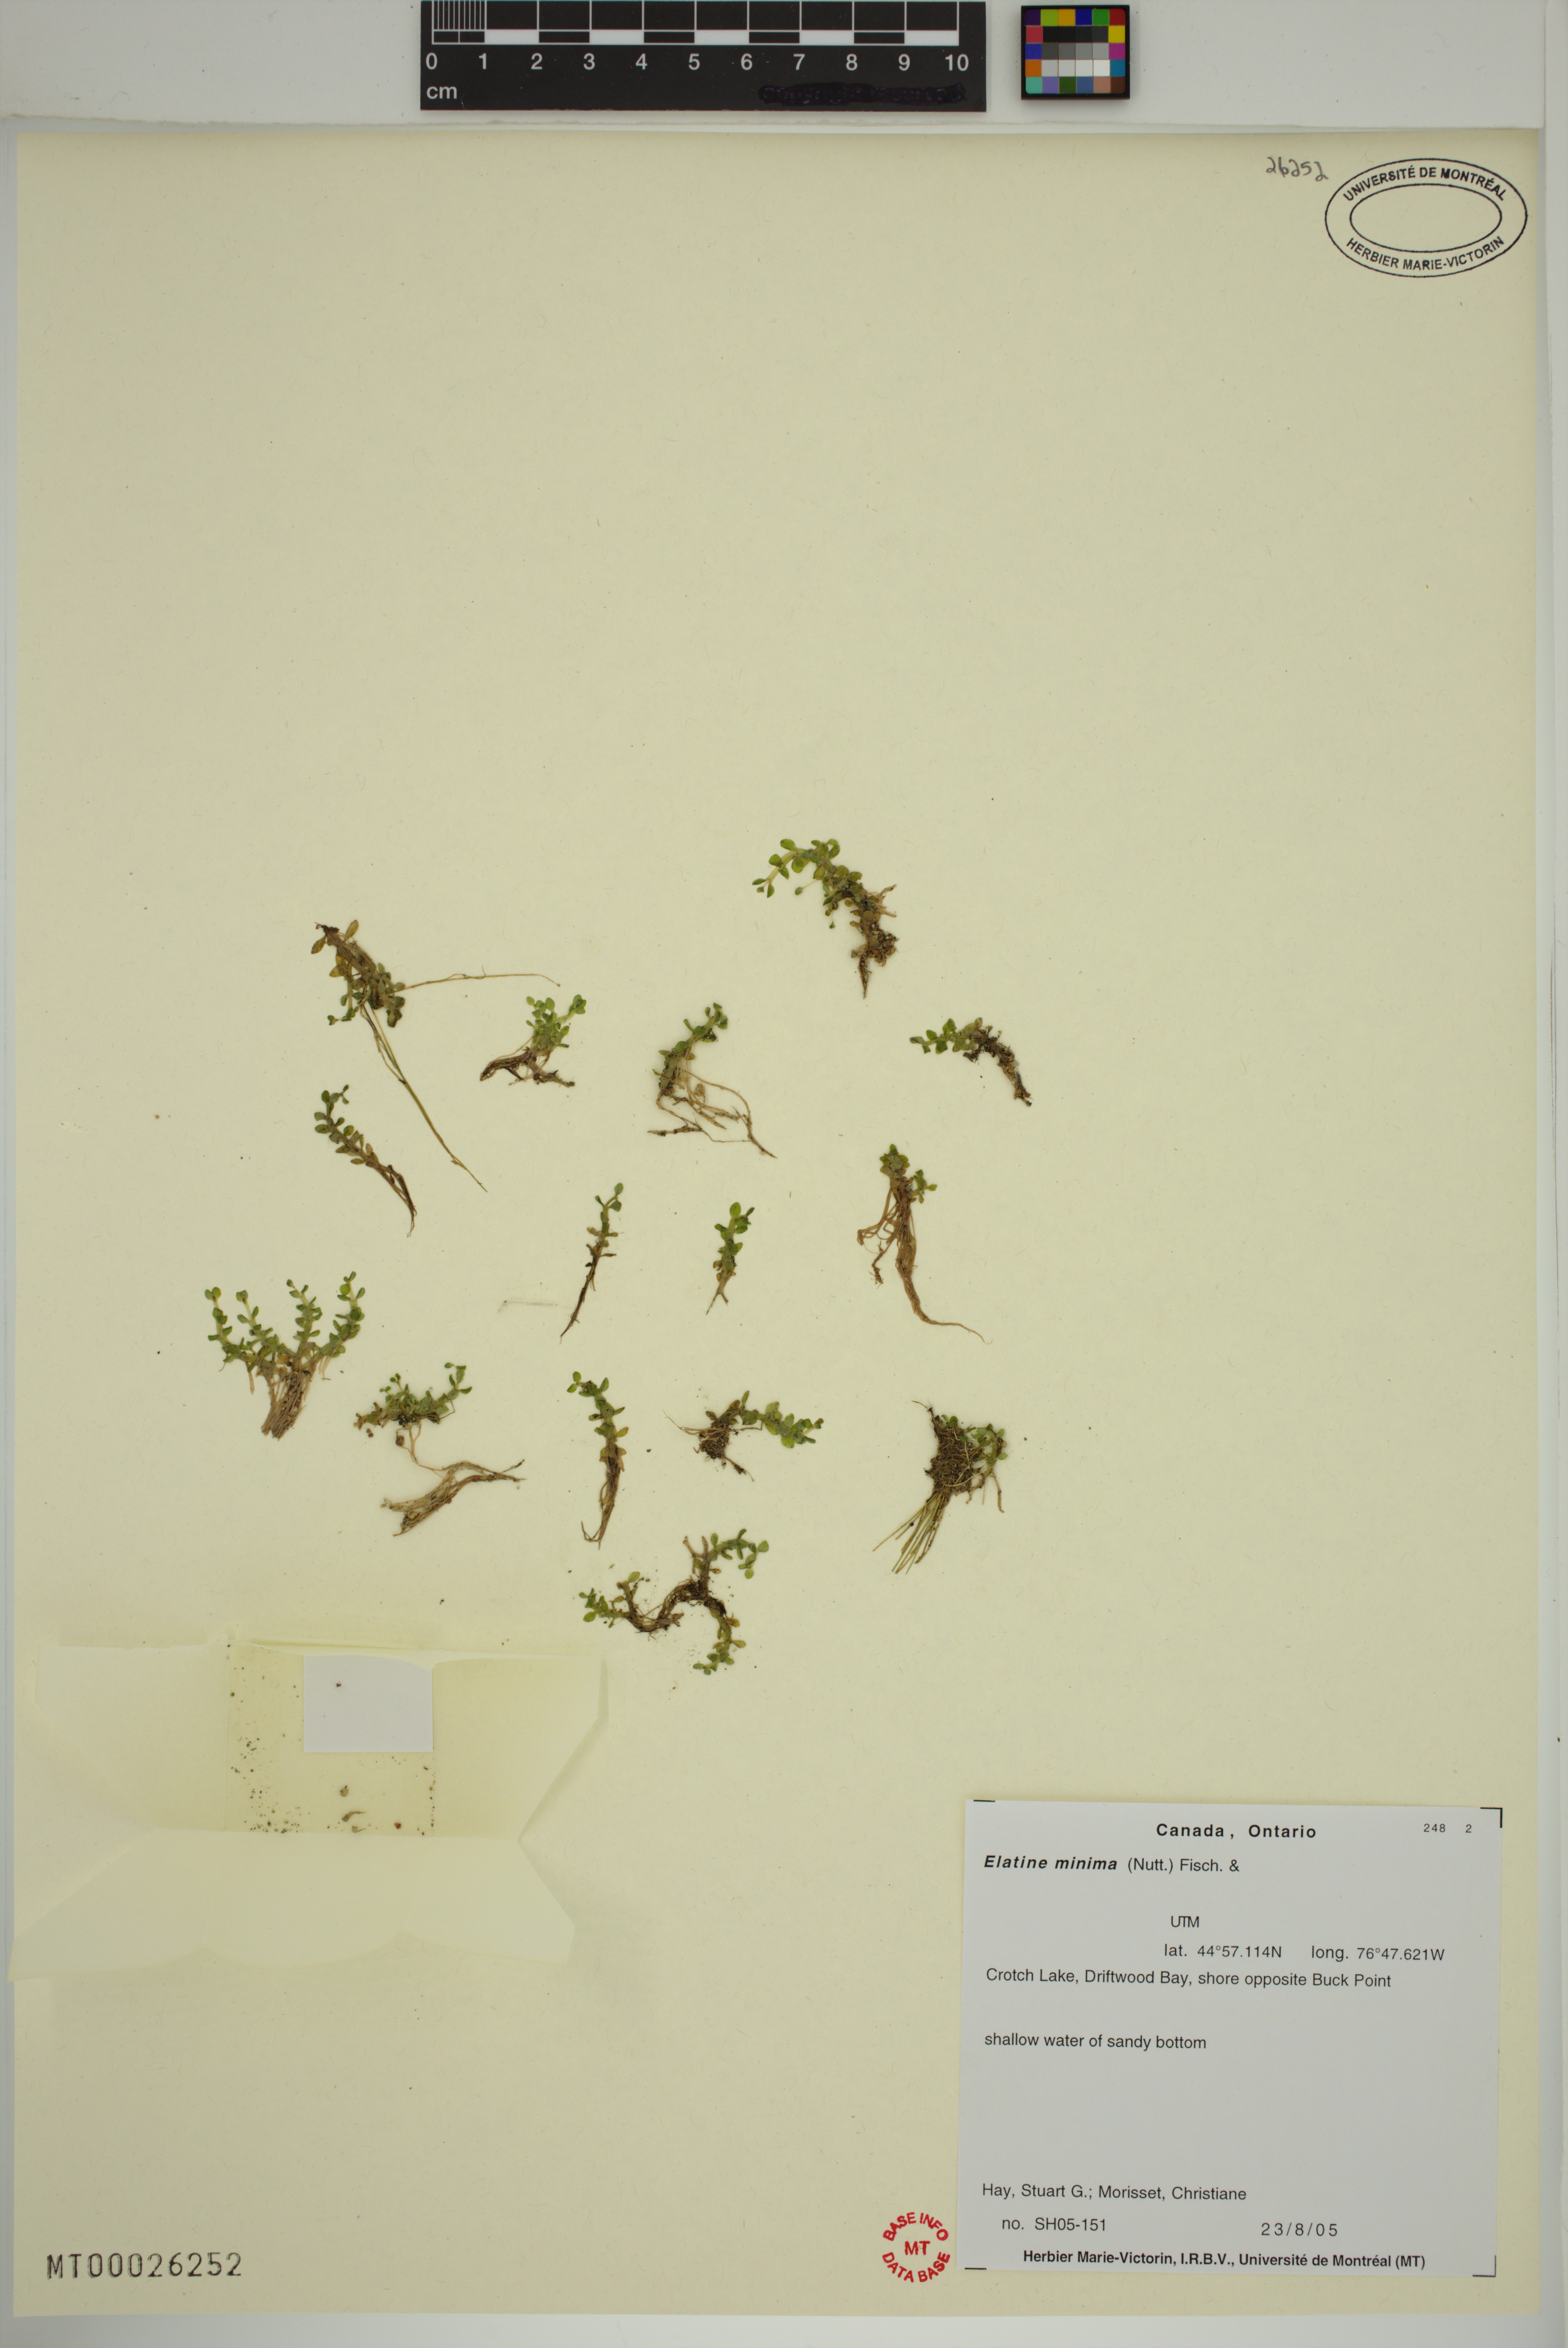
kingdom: Plantae
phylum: Tracheophyta
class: Magnoliopsida
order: Malpighiales
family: Elatinaceae
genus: Elatine
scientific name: Elatine minima
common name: Small waterwort
